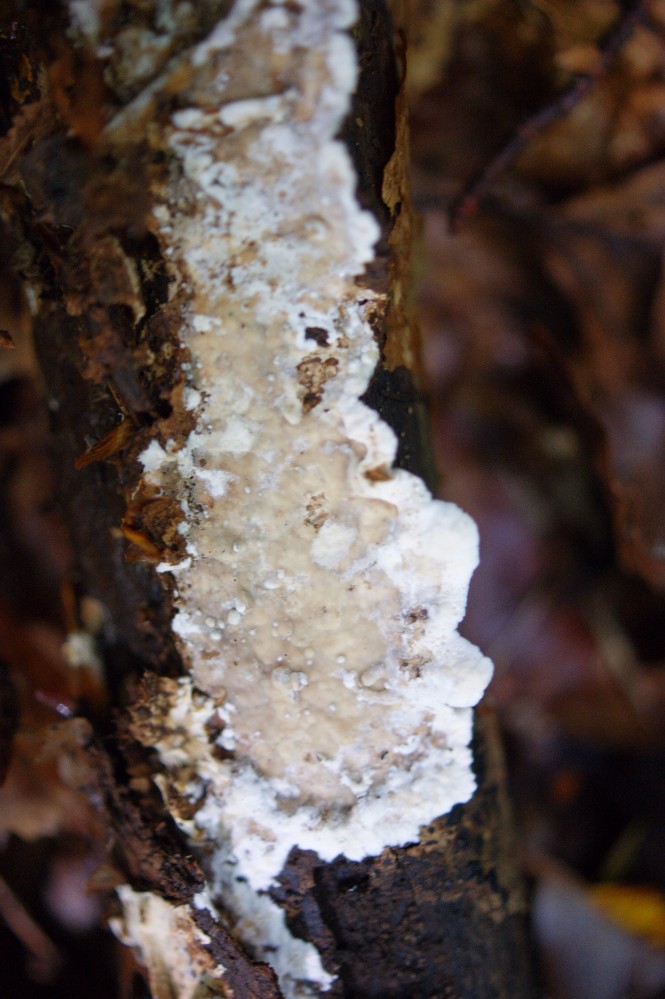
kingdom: Fungi
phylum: Basidiomycota
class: Agaricomycetes
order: Russulales
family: Hericiaceae
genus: Laxitextum
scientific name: Laxitextum bicolor
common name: tvefarvet filtskind
